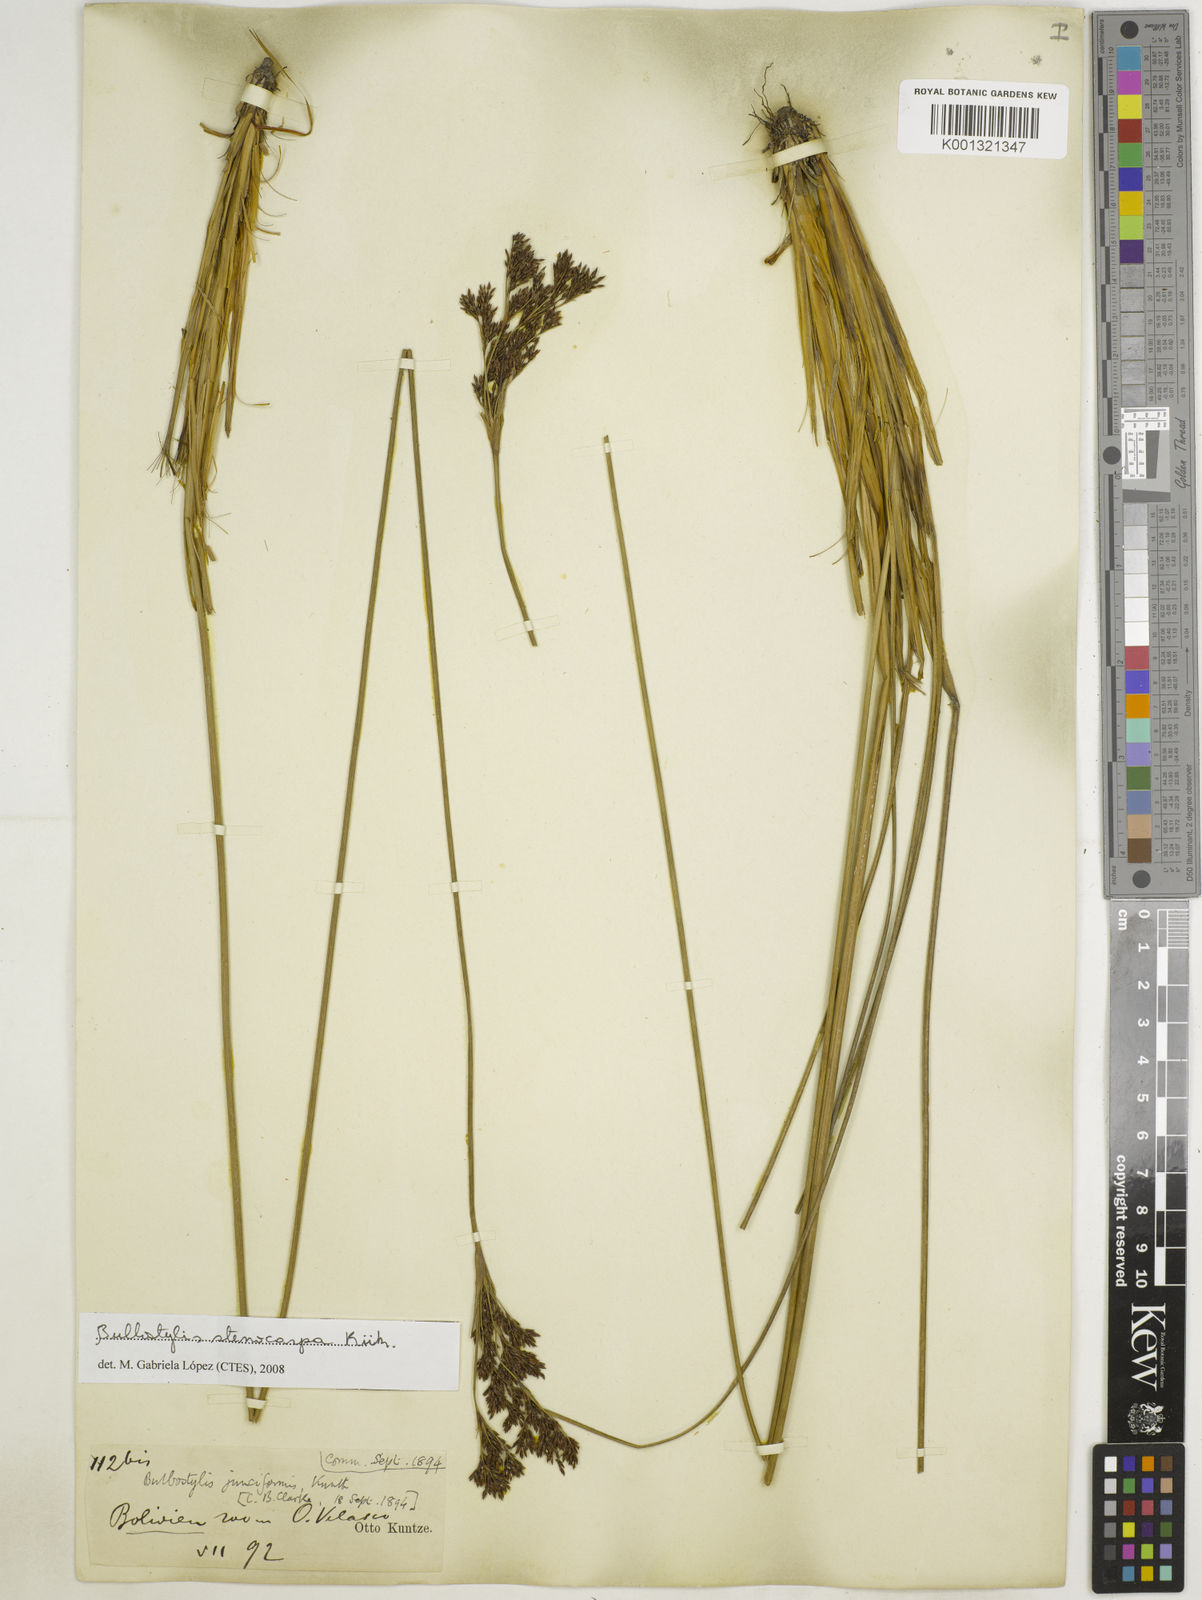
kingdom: Plantae
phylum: Tracheophyta
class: Liliopsida
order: Poales
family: Cyperaceae
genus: Bulbostylis
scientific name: Bulbostylis stenocarpa
